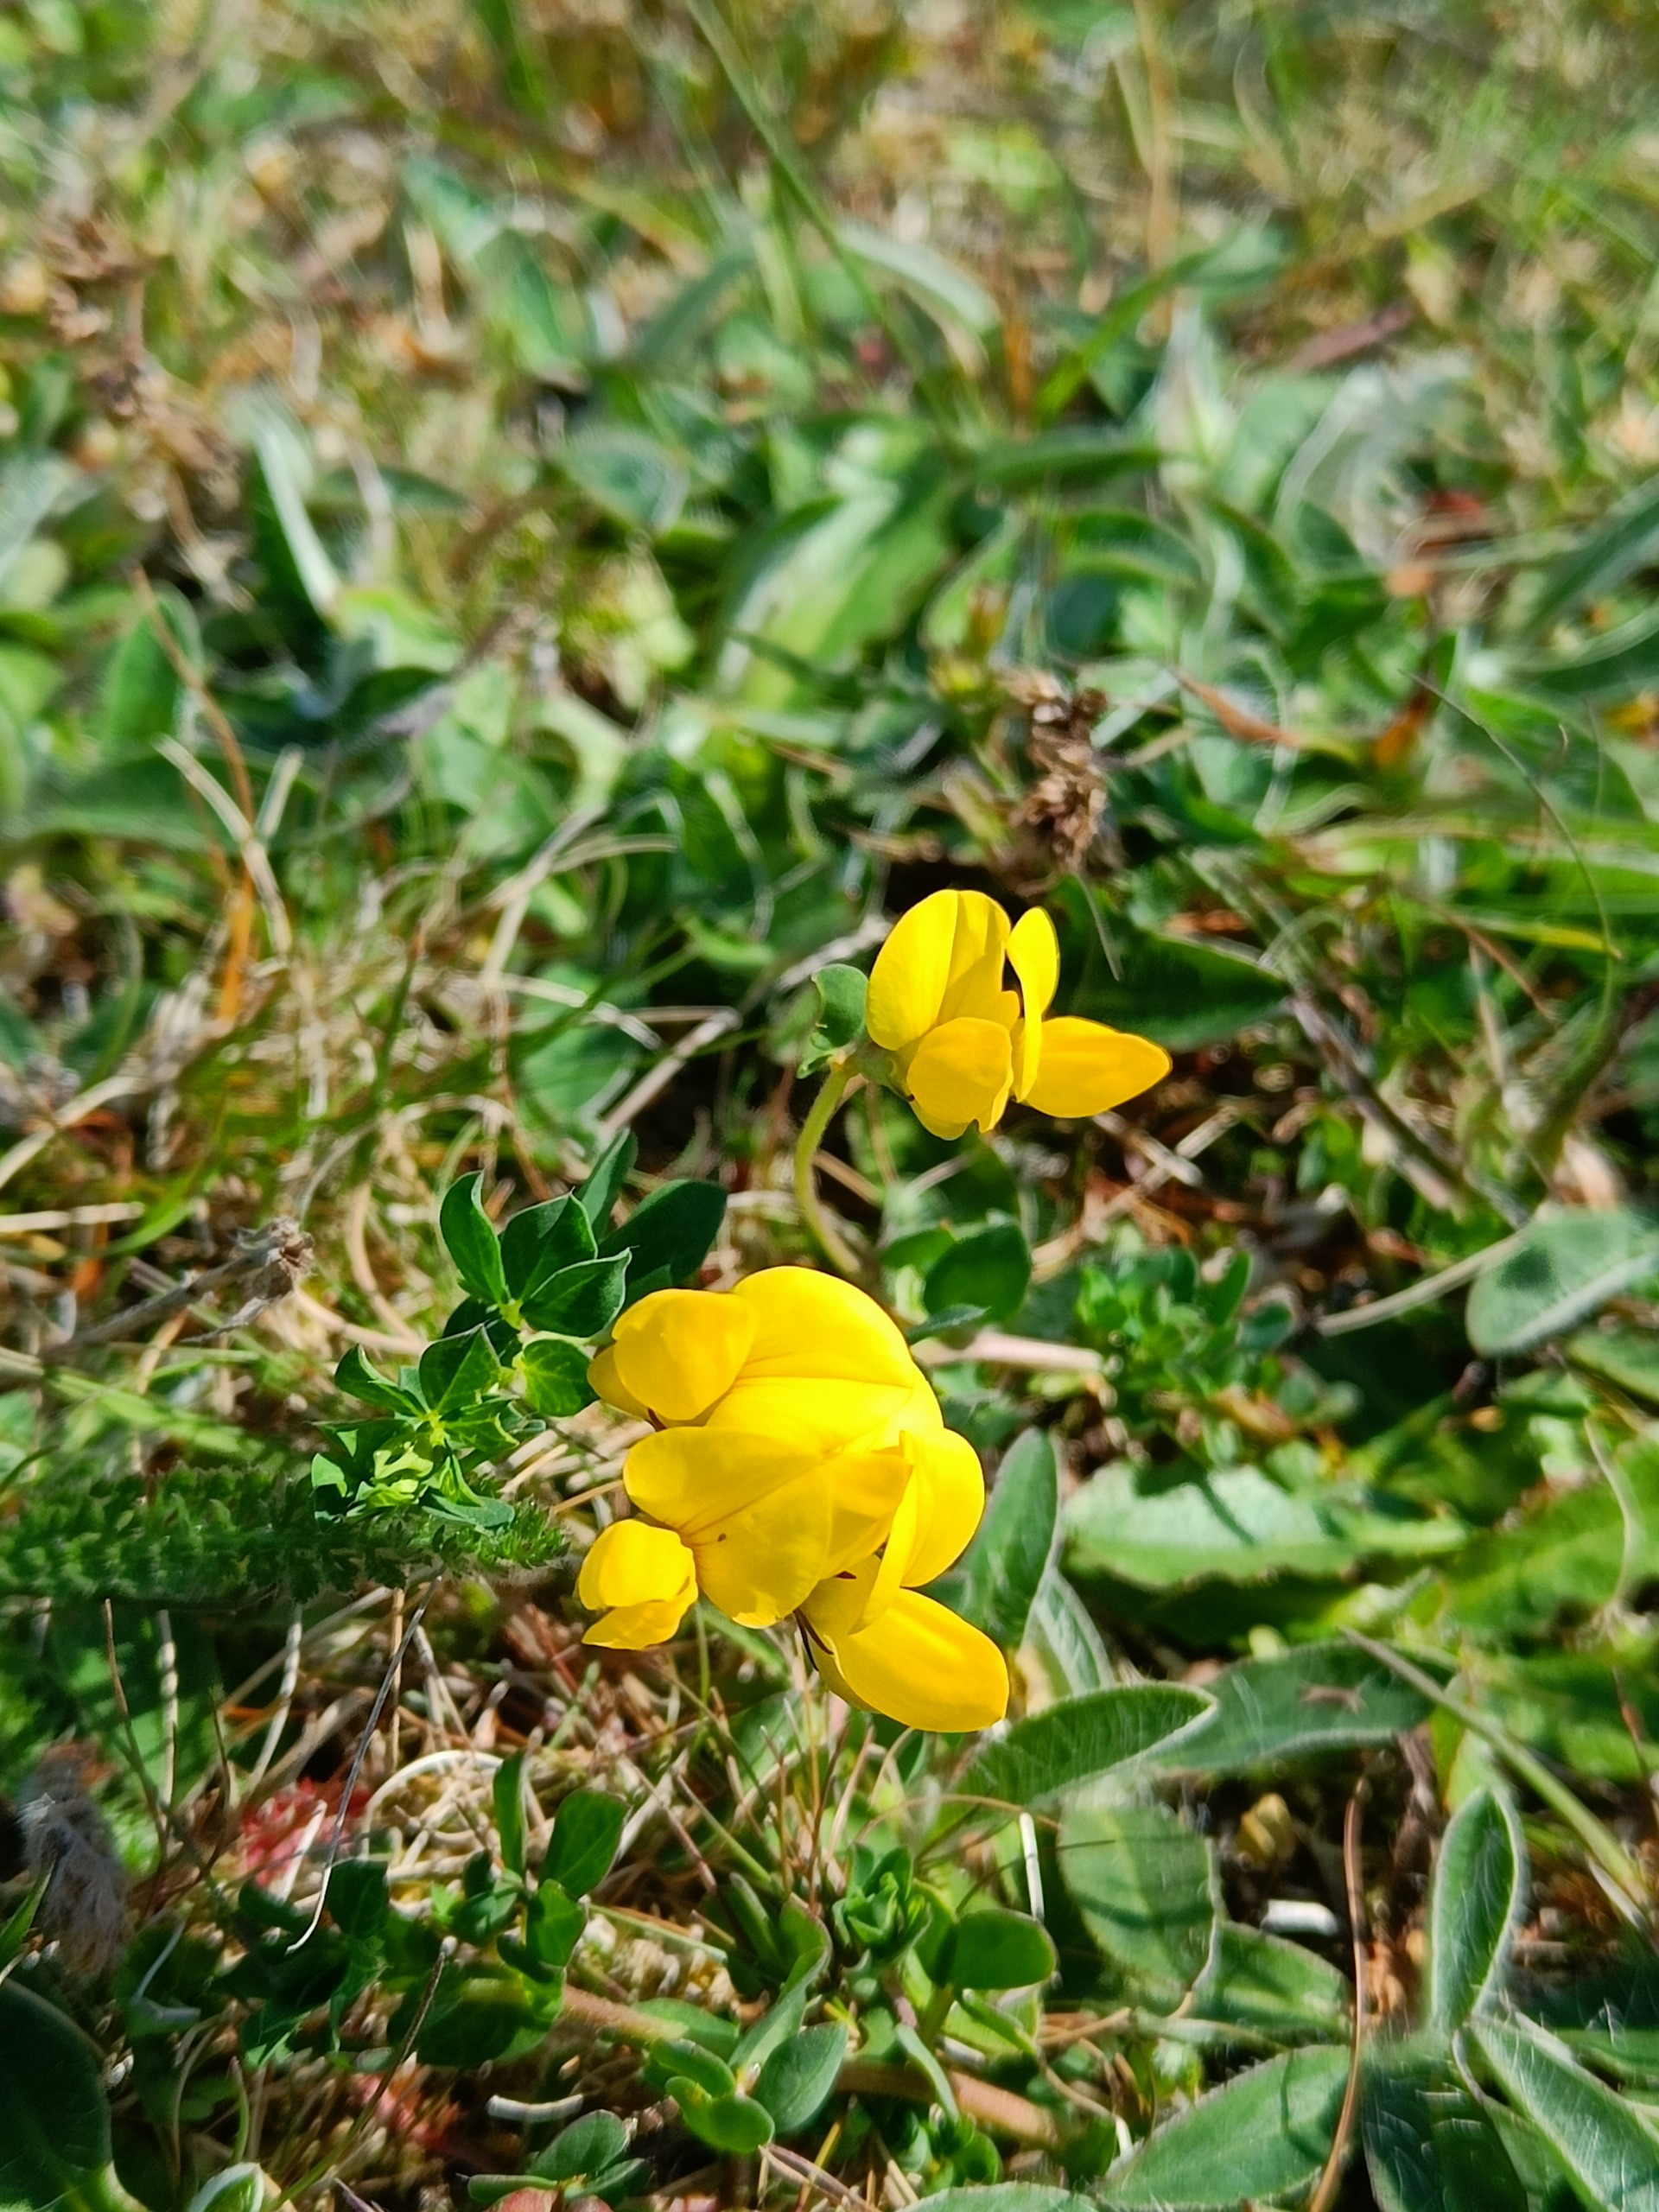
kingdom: Plantae
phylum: Tracheophyta
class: Magnoliopsida
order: Fabales
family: Fabaceae
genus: Lotus
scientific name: Lotus corniculatus
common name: Almindelig kællingetand
